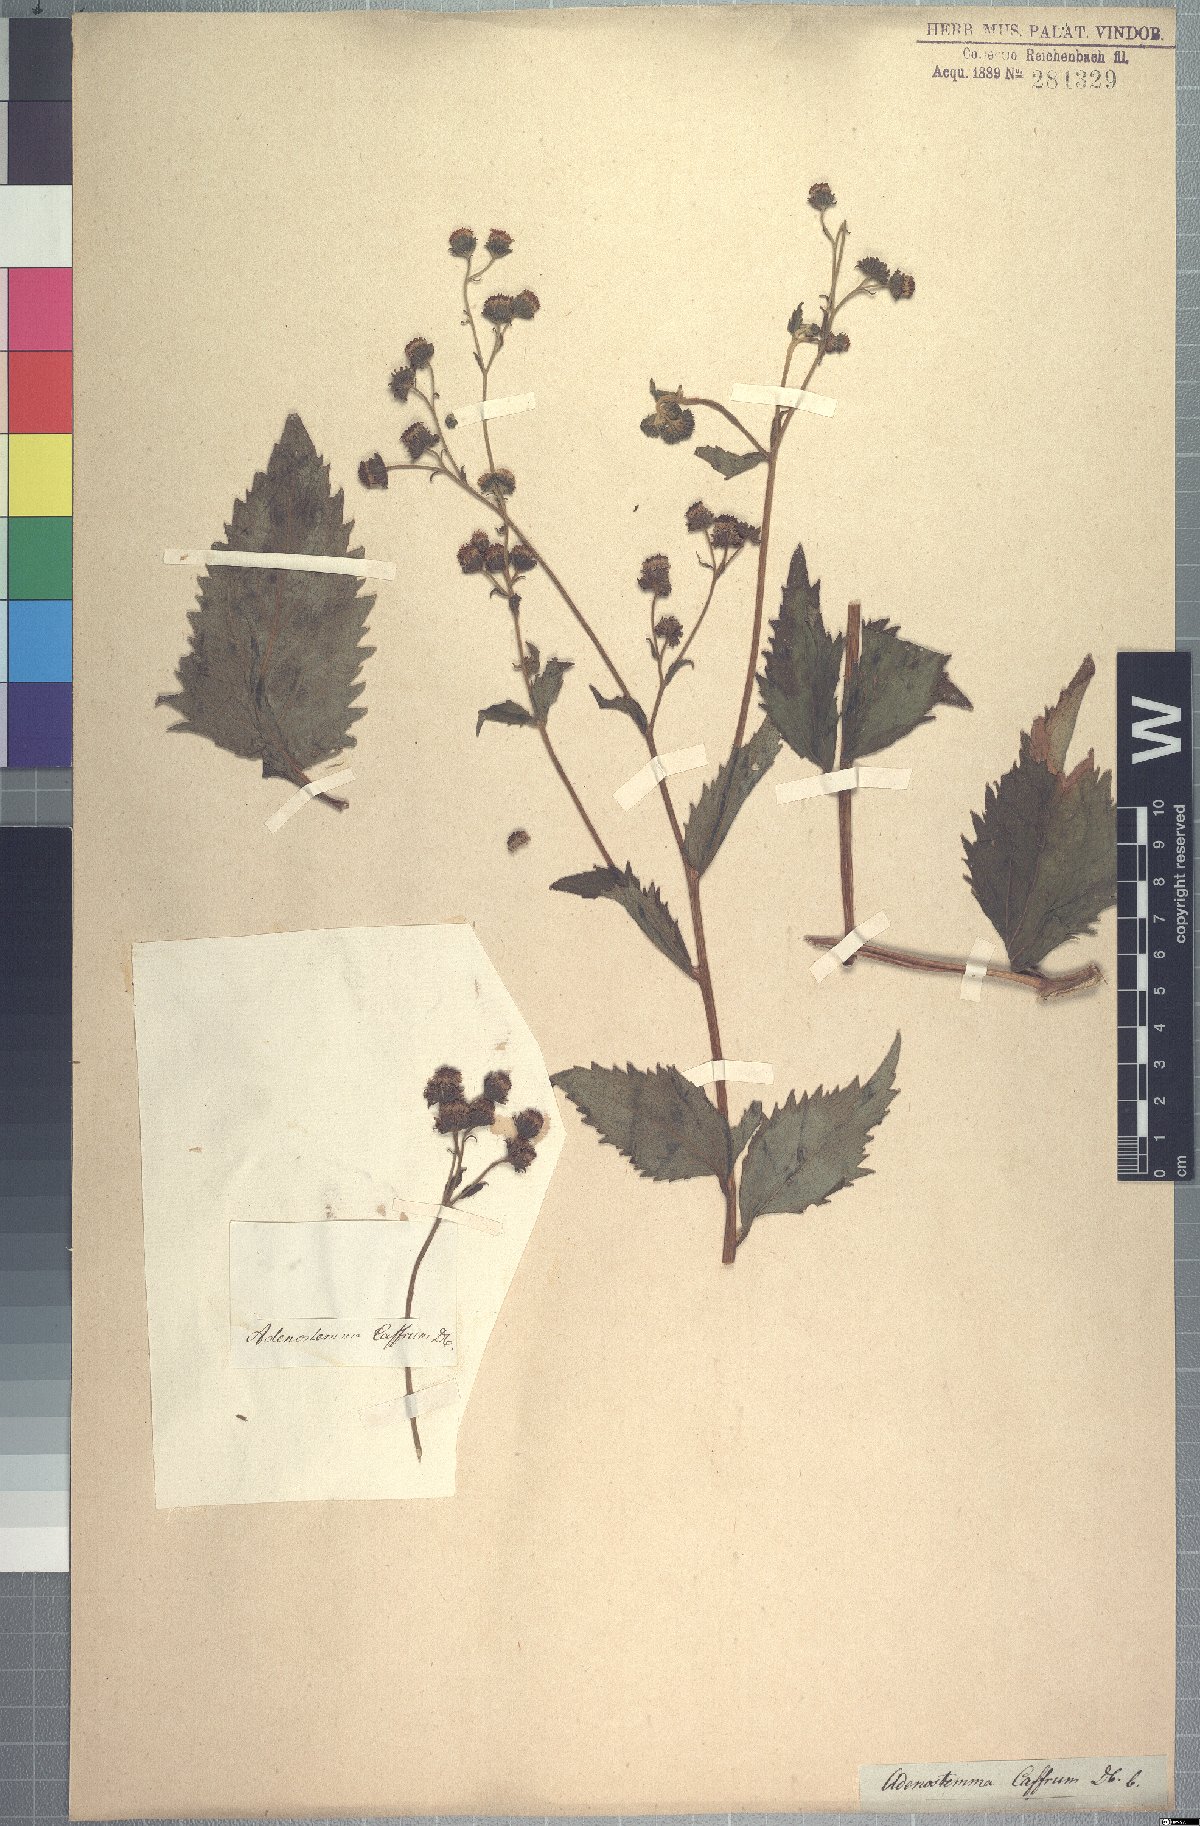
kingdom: Plantae
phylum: Tracheophyta
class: Magnoliopsida
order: Asterales
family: Asteraceae
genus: Adenostemma
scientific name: Adenostemma caffrum
